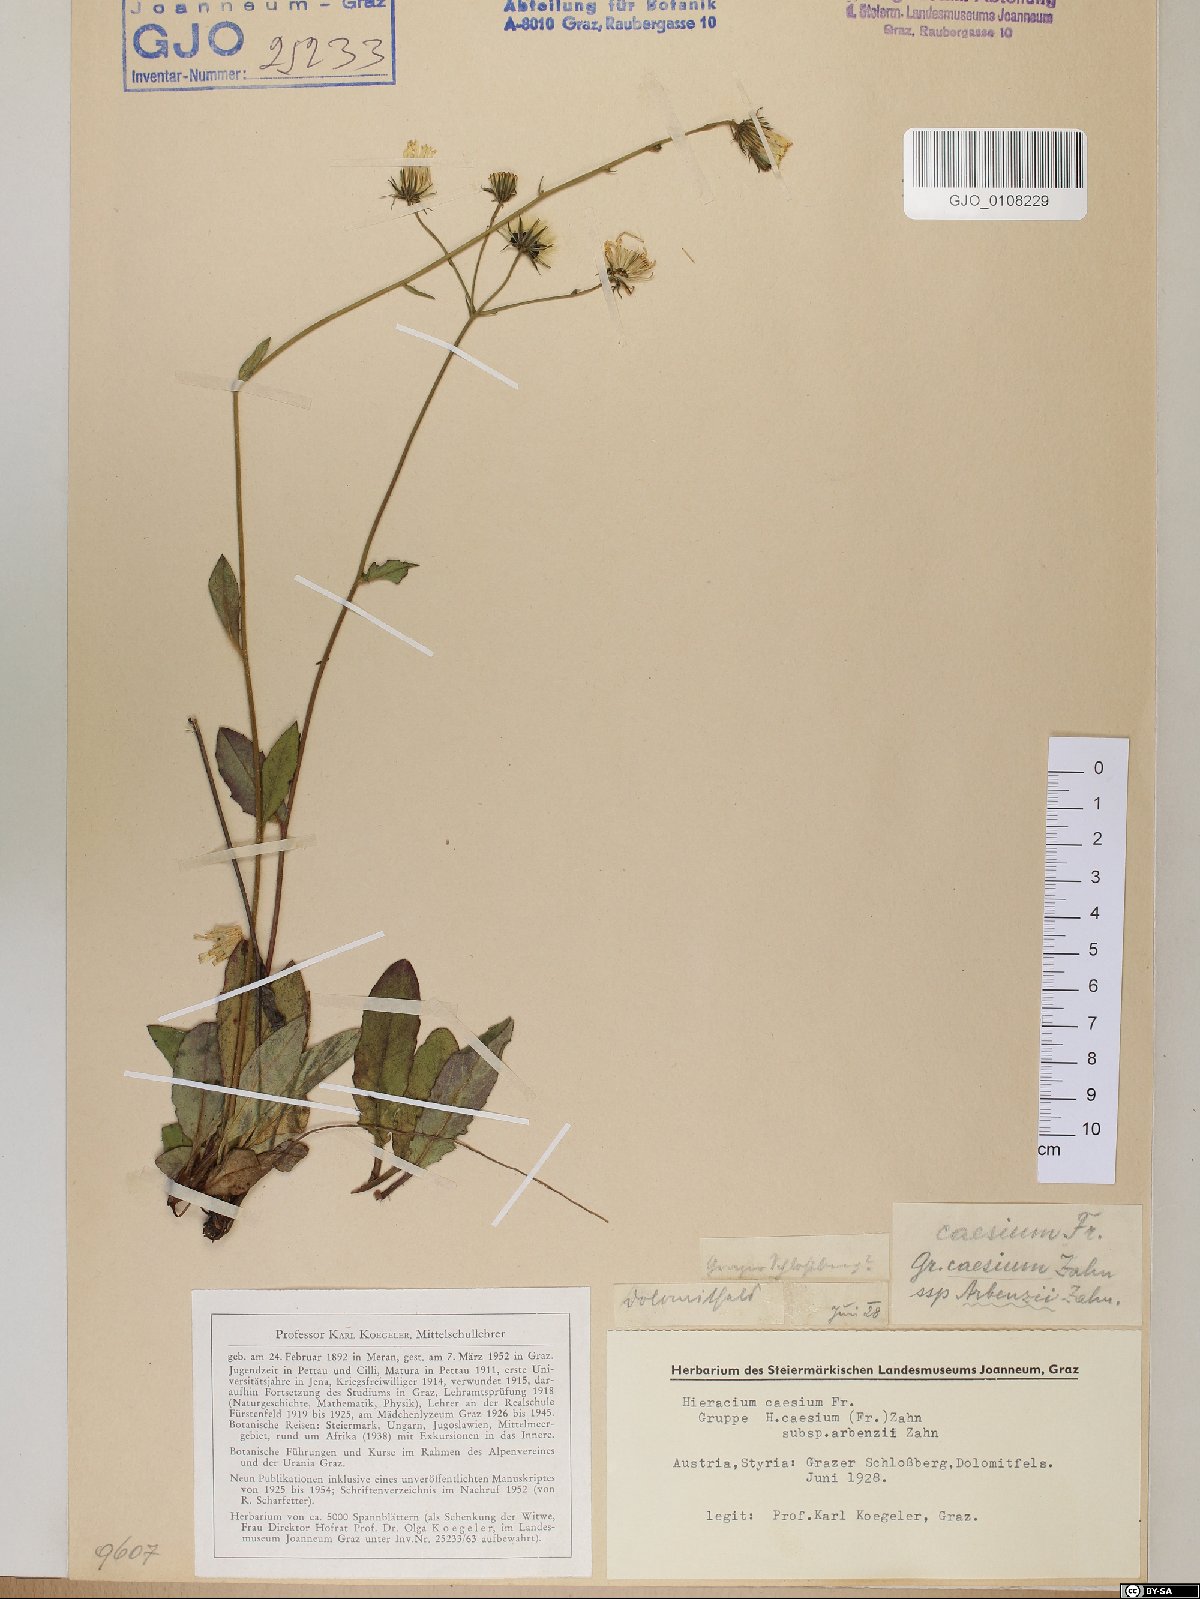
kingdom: Plantae
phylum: Tracheophyta
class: Magnoliopsida
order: Asterales
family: Asteraceae
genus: Hieracium
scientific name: Hieracium caesium
